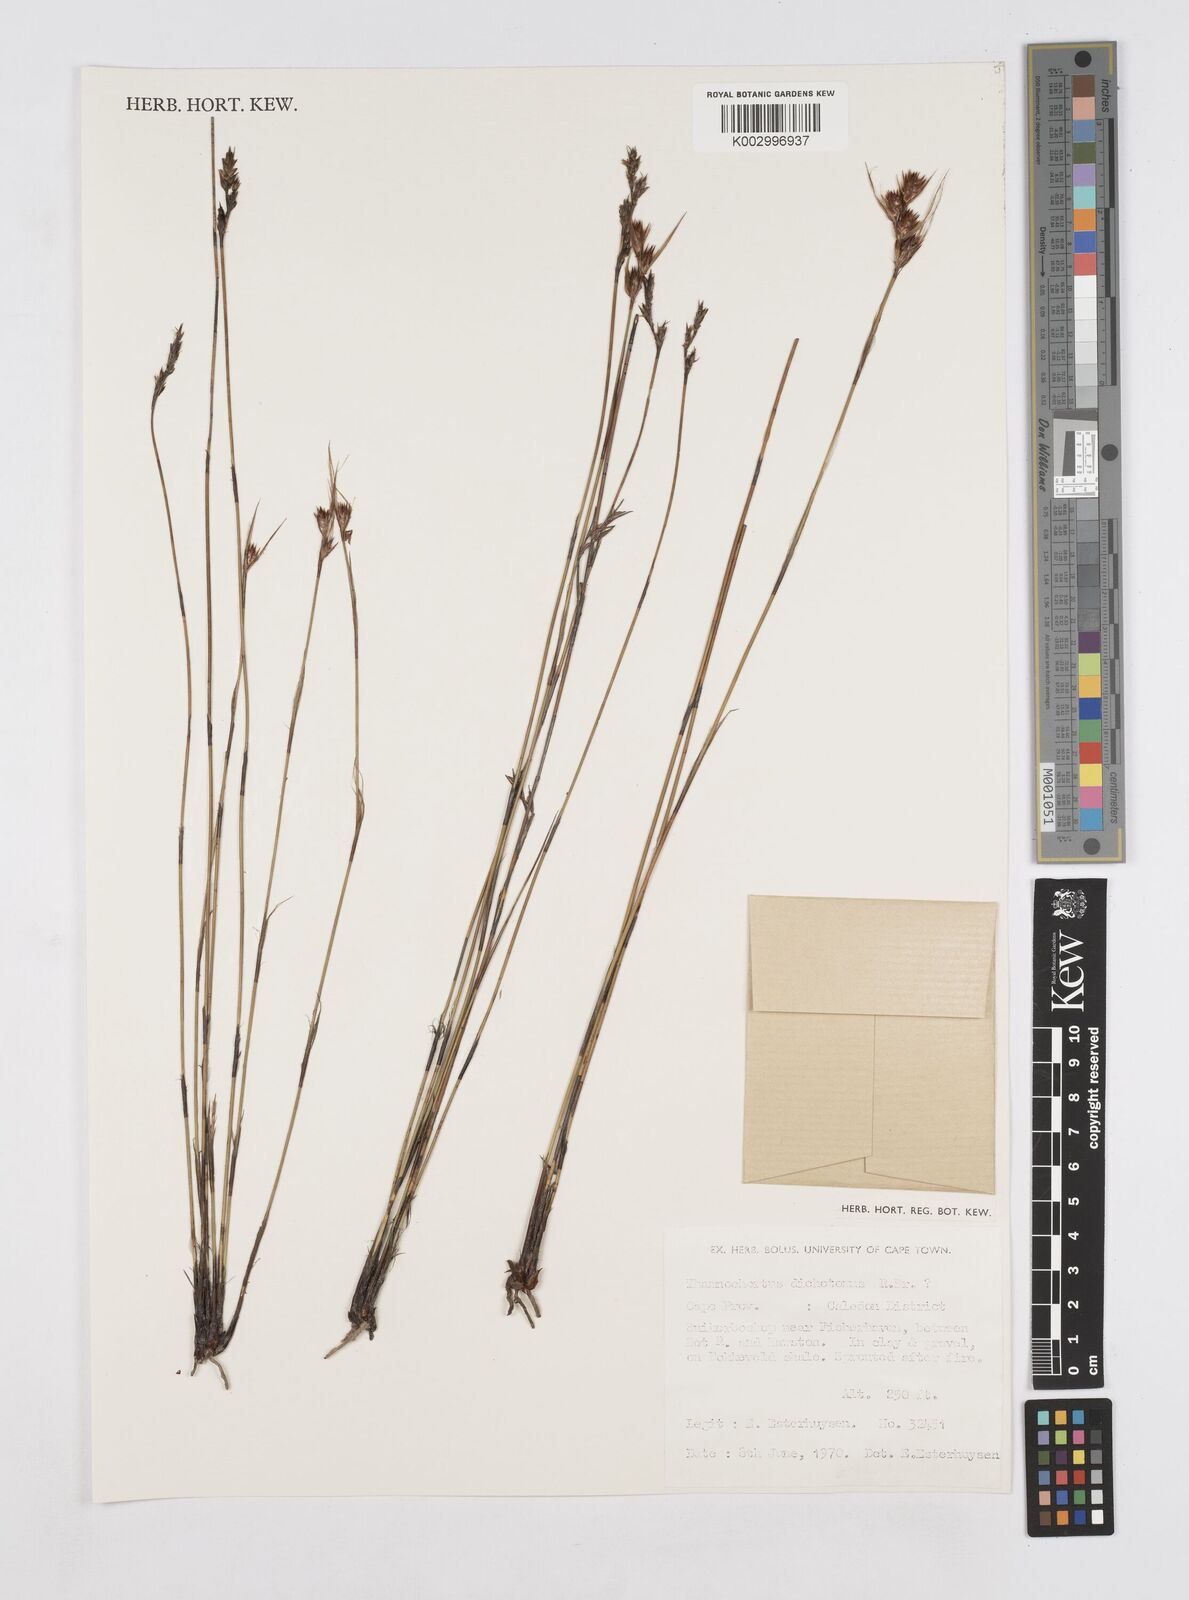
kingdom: Plantae
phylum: Tracheophyta
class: Liliopsida
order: Poales
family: Restionaceae
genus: Thamnochortus
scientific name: Thamnochortus lucens
